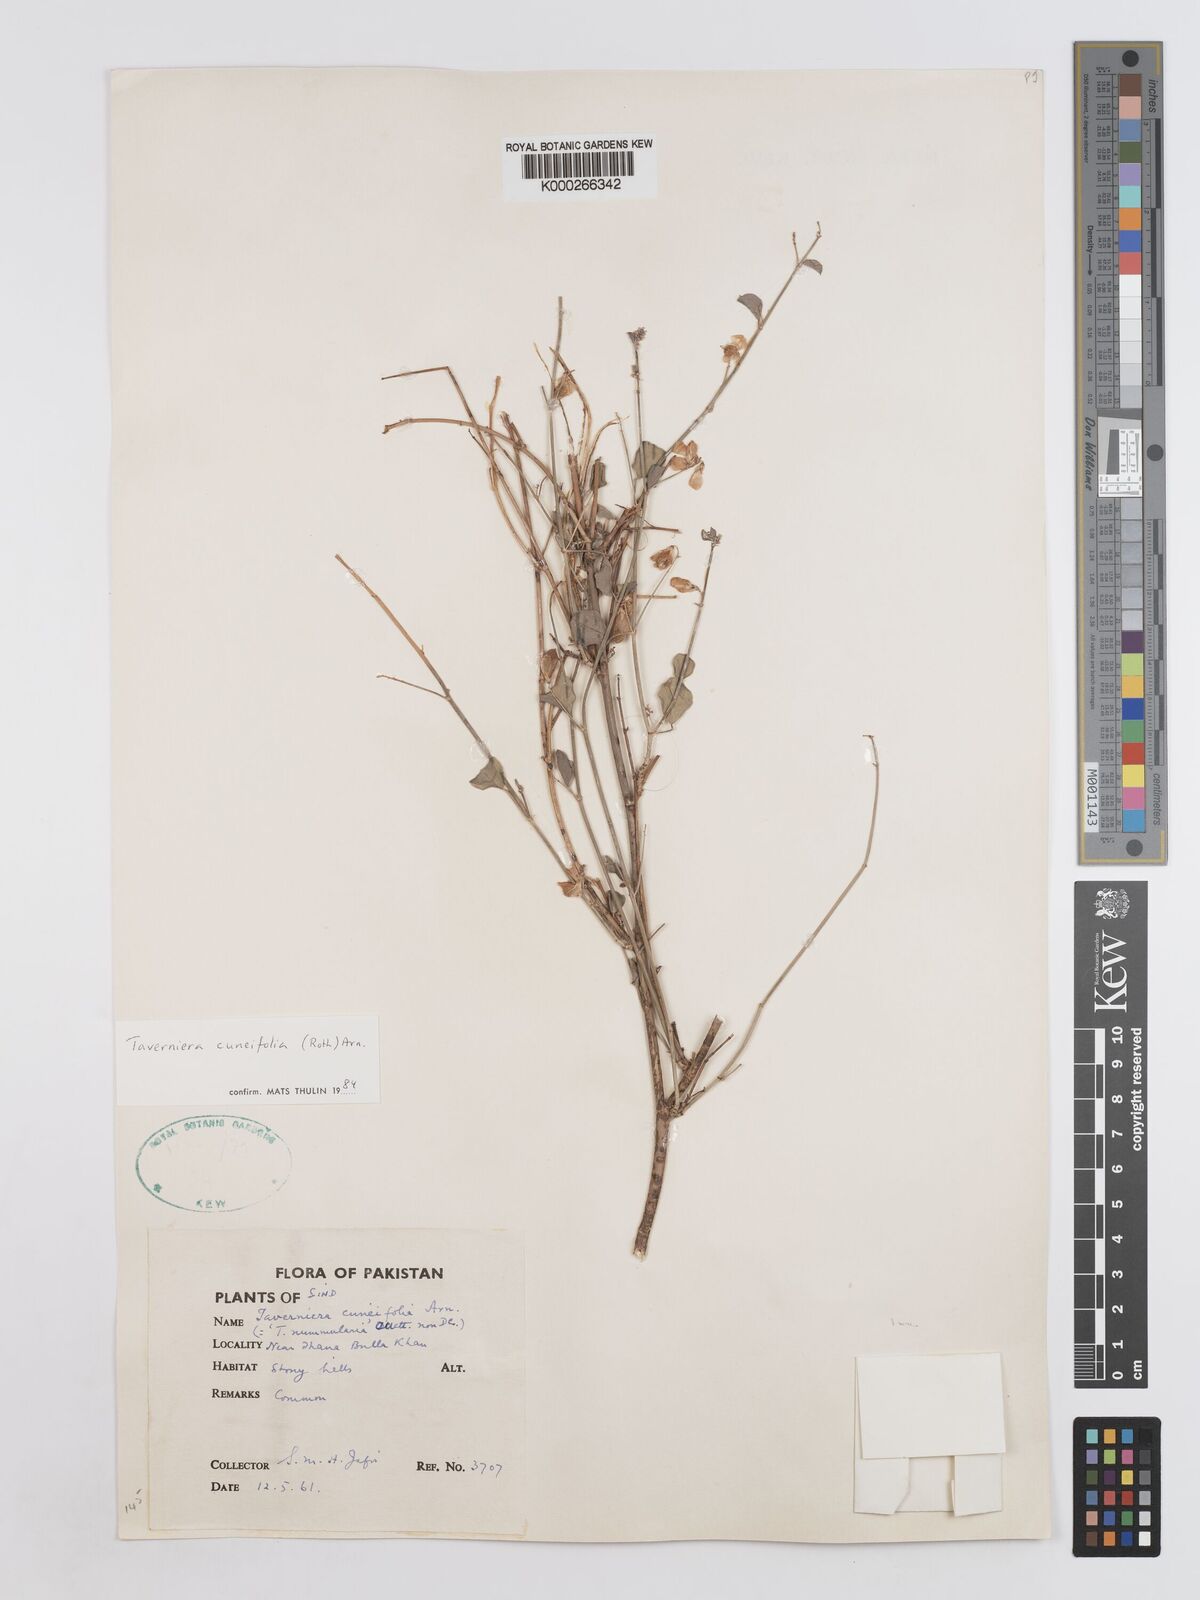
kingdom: Plantae
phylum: Tracheophyta
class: Magnoliopsida
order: Fabales
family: Fabaceae
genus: Taverniera
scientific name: Taverniera cuneifolia
